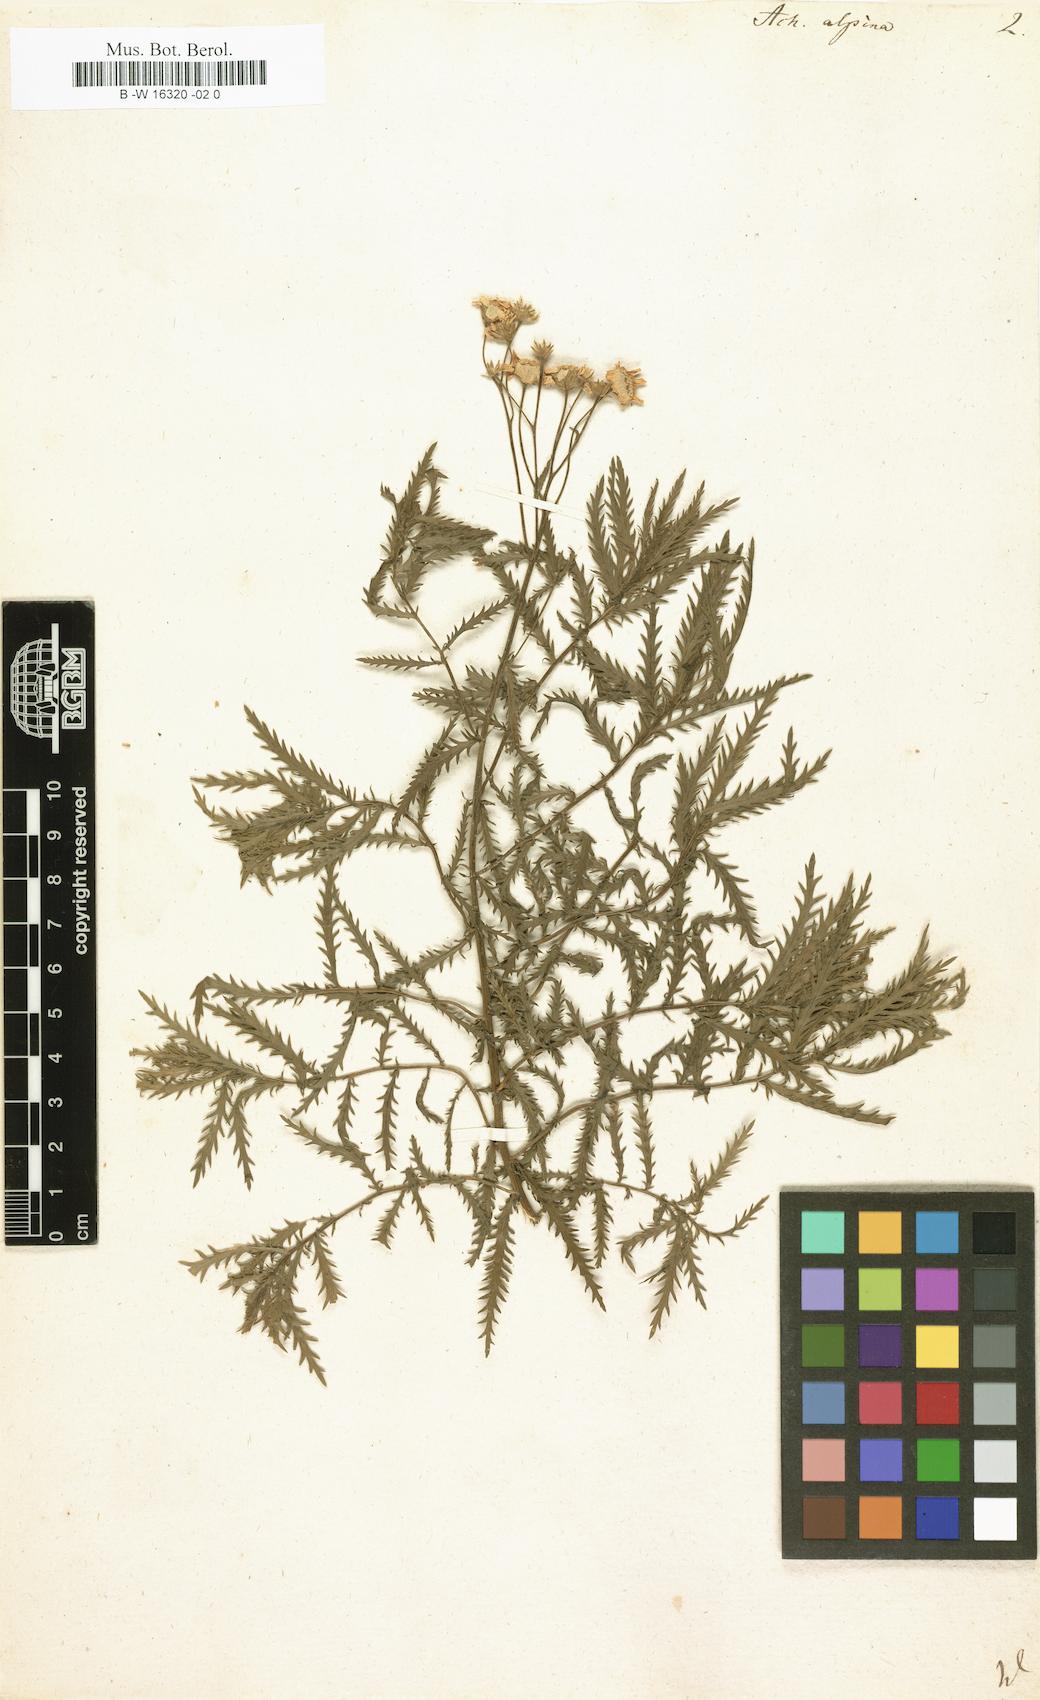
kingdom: Plantae
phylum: Tracheophyta
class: Magnoliopsida
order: Asterales
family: Asteraceae
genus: Achillea
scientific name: Achillea alpina
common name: Siberian yarrow
